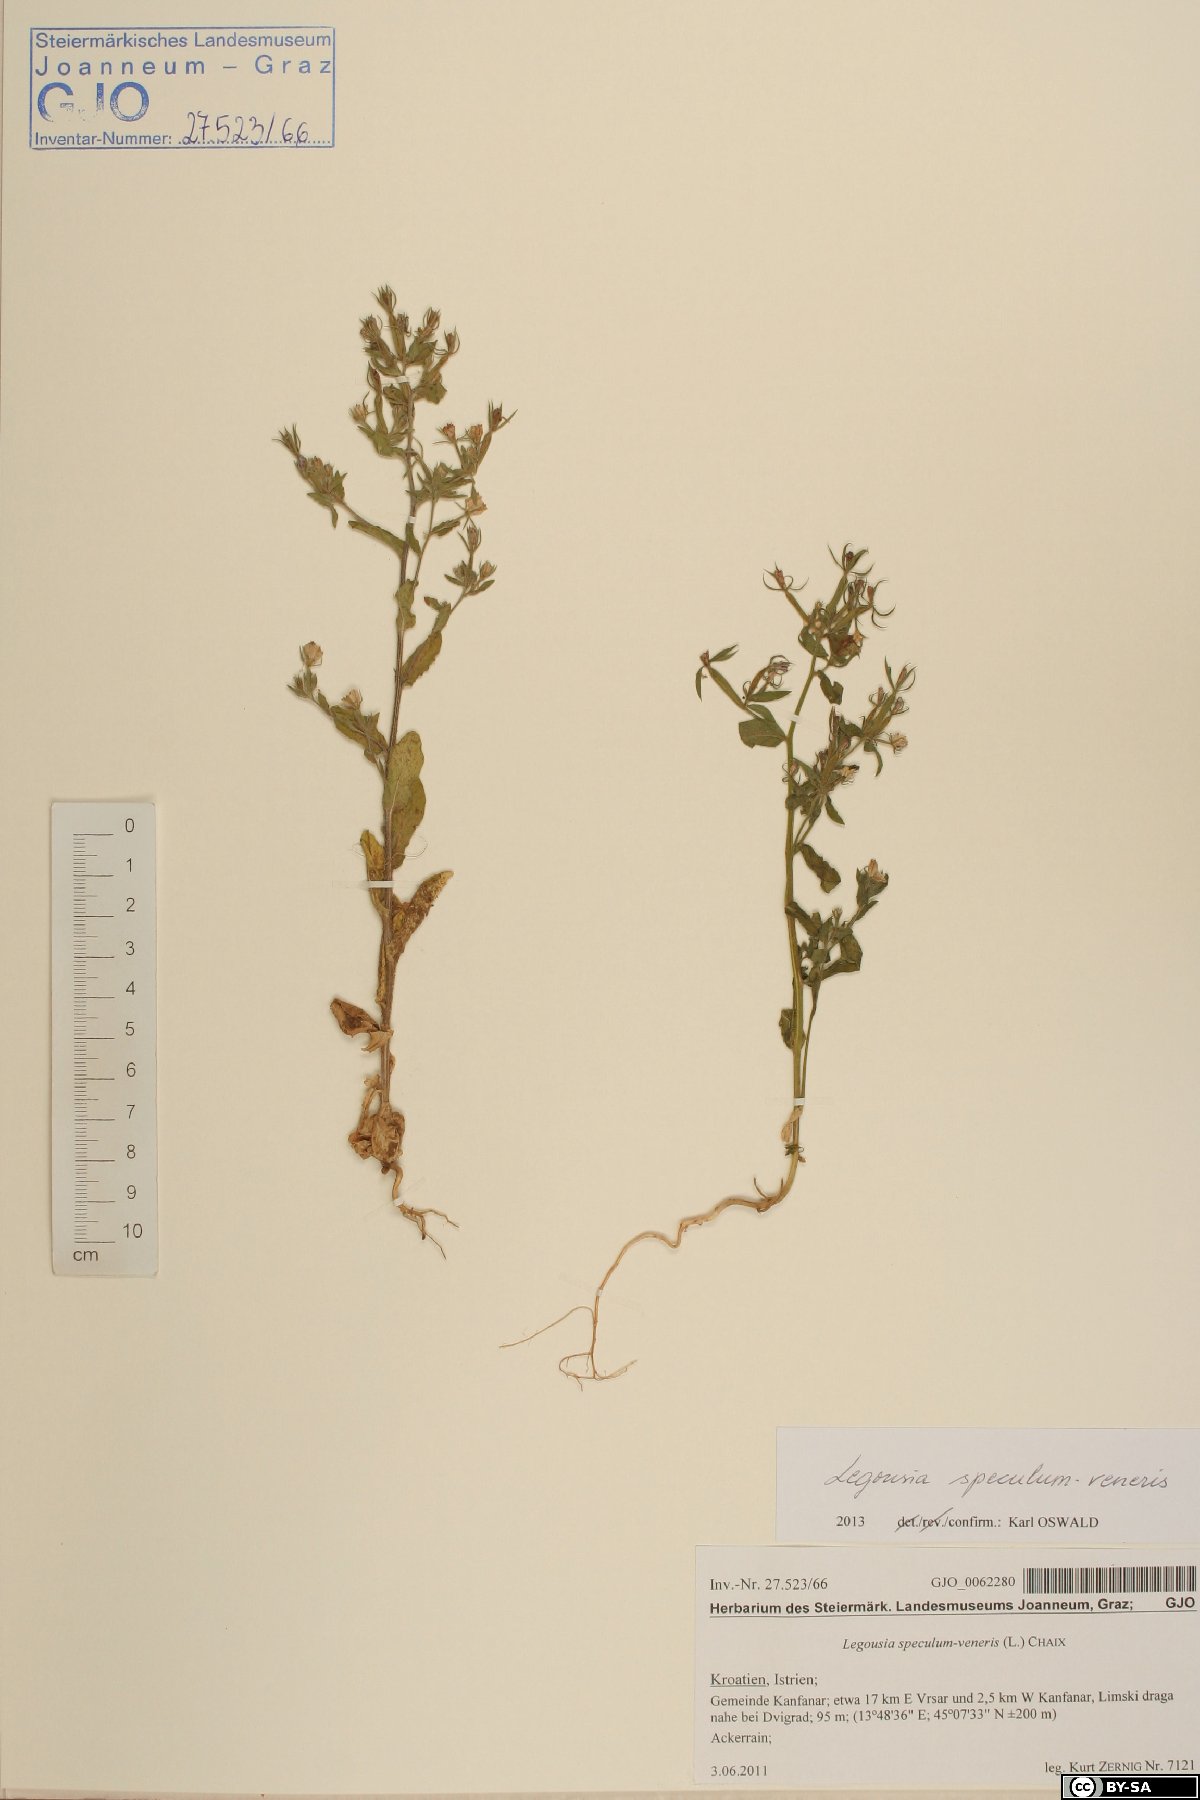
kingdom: Plantae
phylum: Tracheophyta
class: Magnoliopsida
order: Asterales
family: Campanulaceae
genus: Legousia
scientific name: Legousia speculum-veneris
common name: Large venus's-looking-glass
